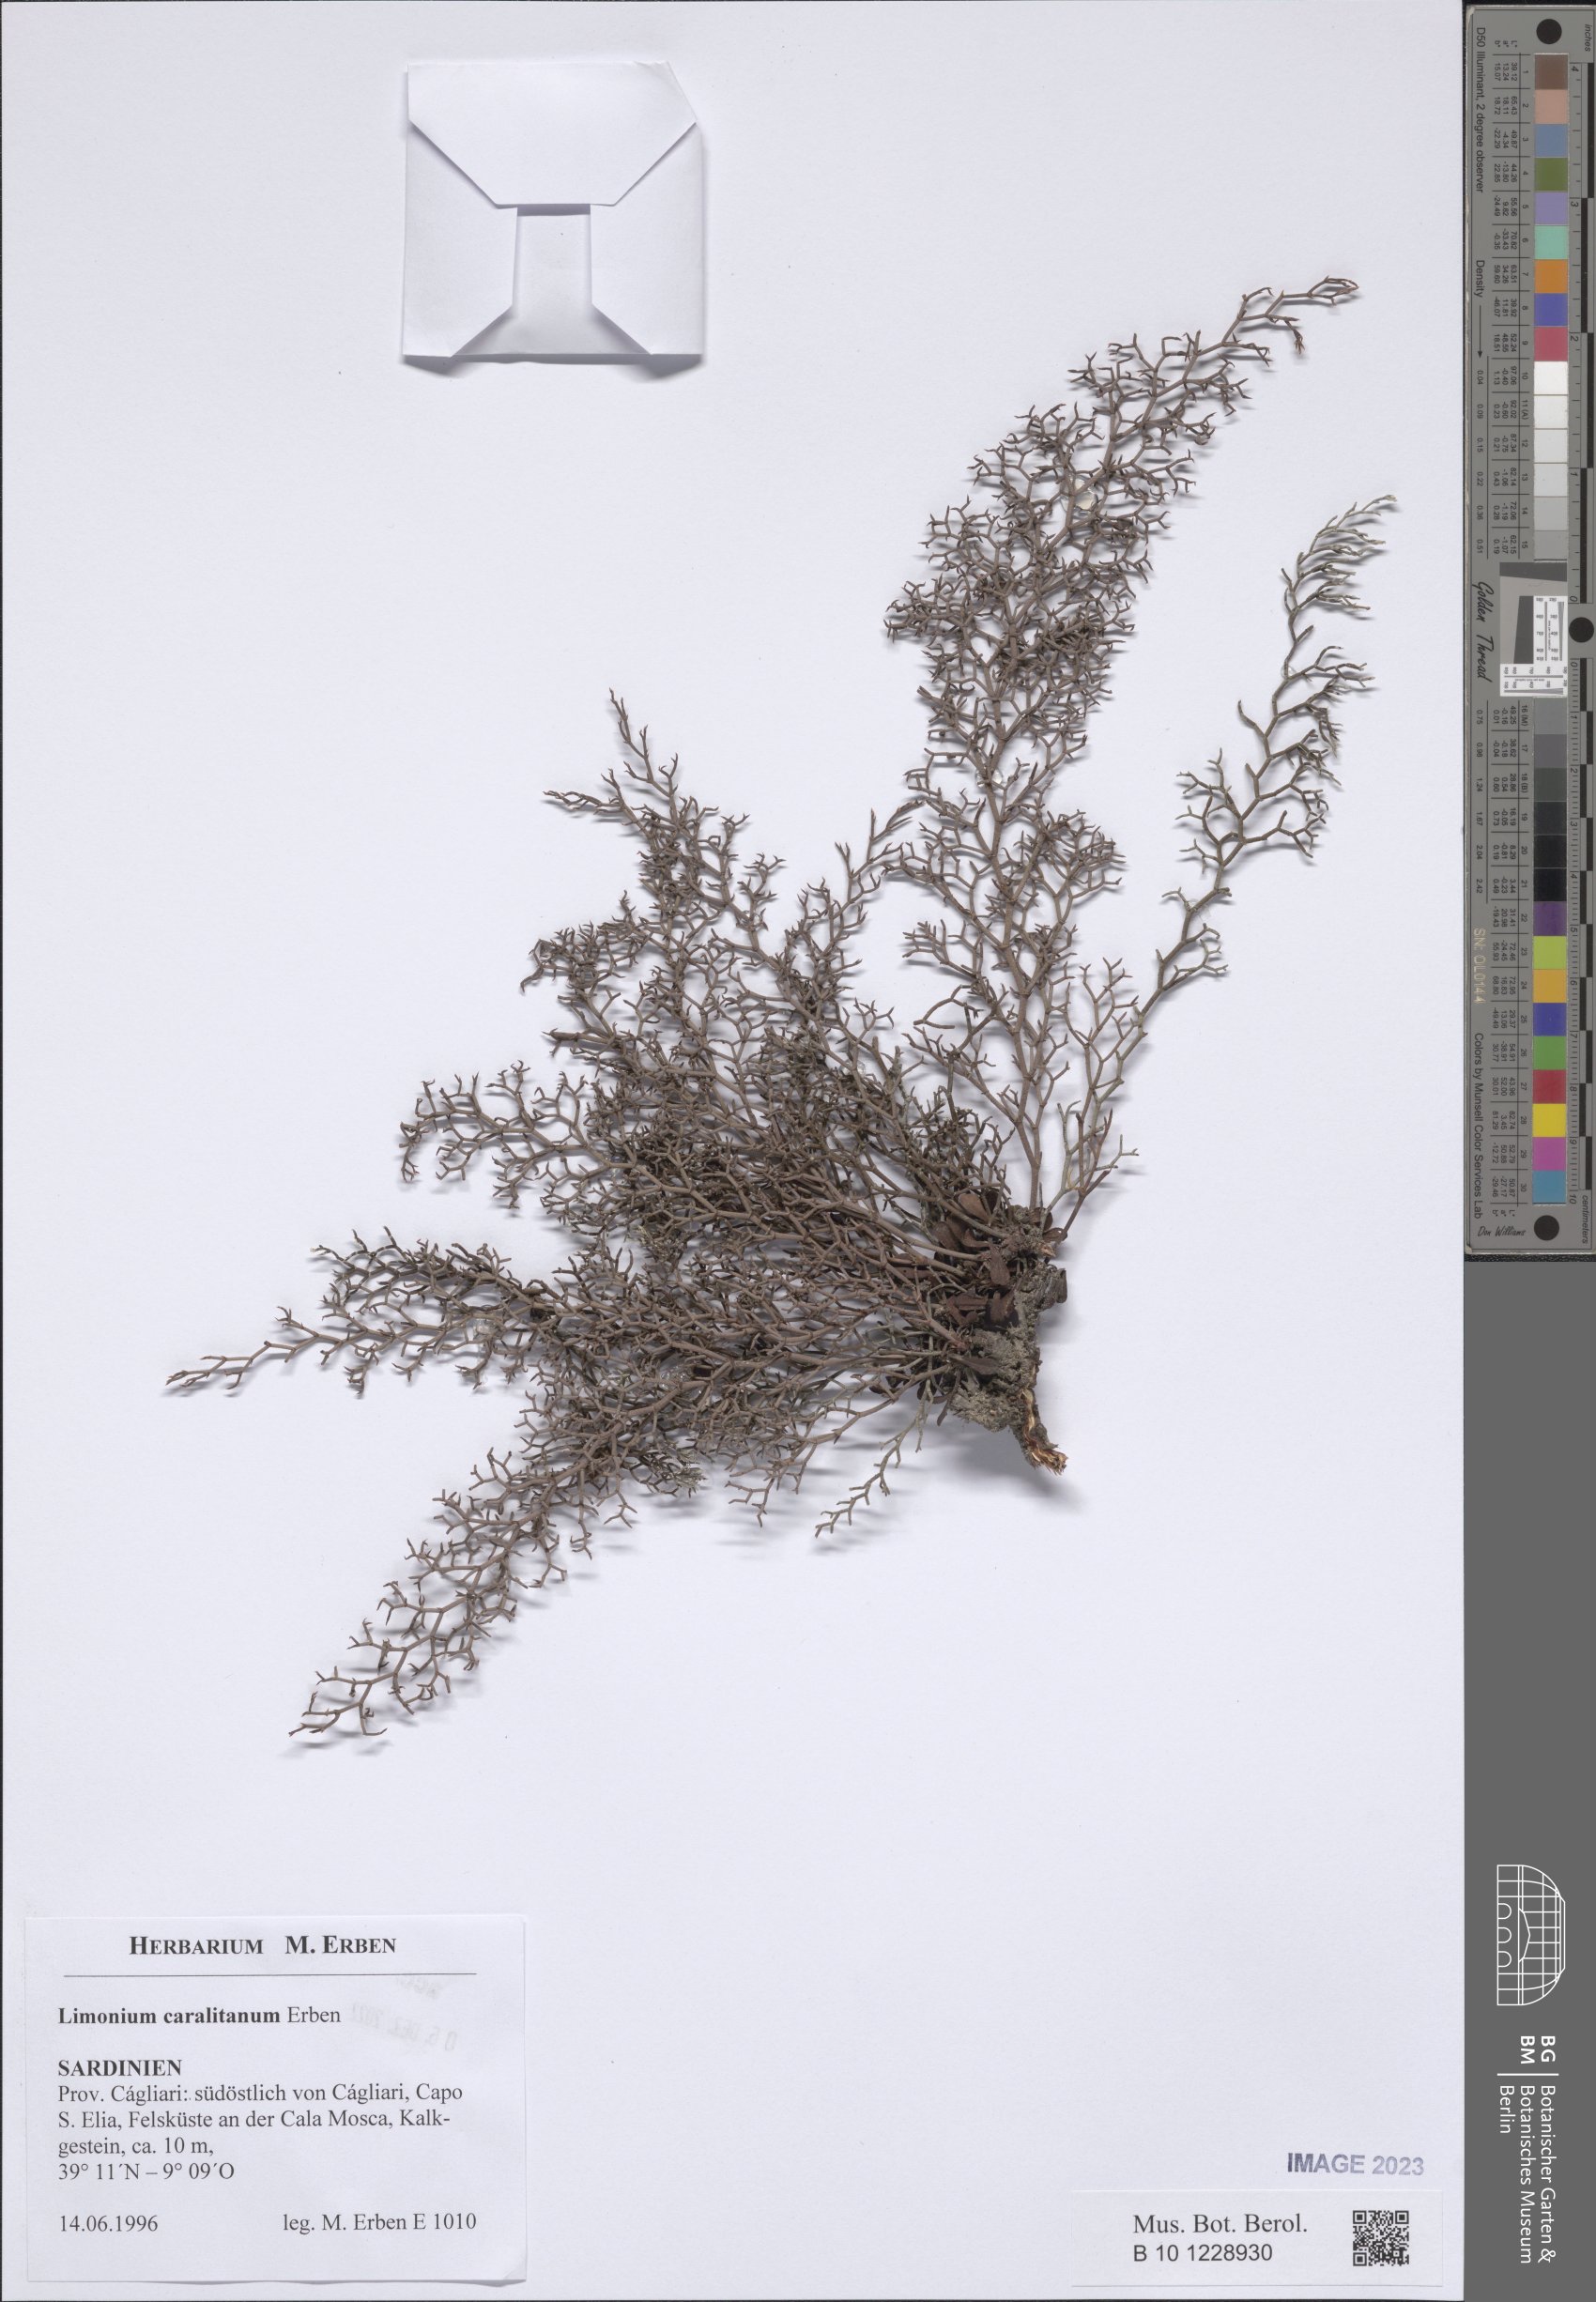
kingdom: Plantae
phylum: Tracheophyta
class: Magnoliopsida
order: Caryophyllales
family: Plumbaginaceae
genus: Limonium
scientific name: Limonium sardoum
